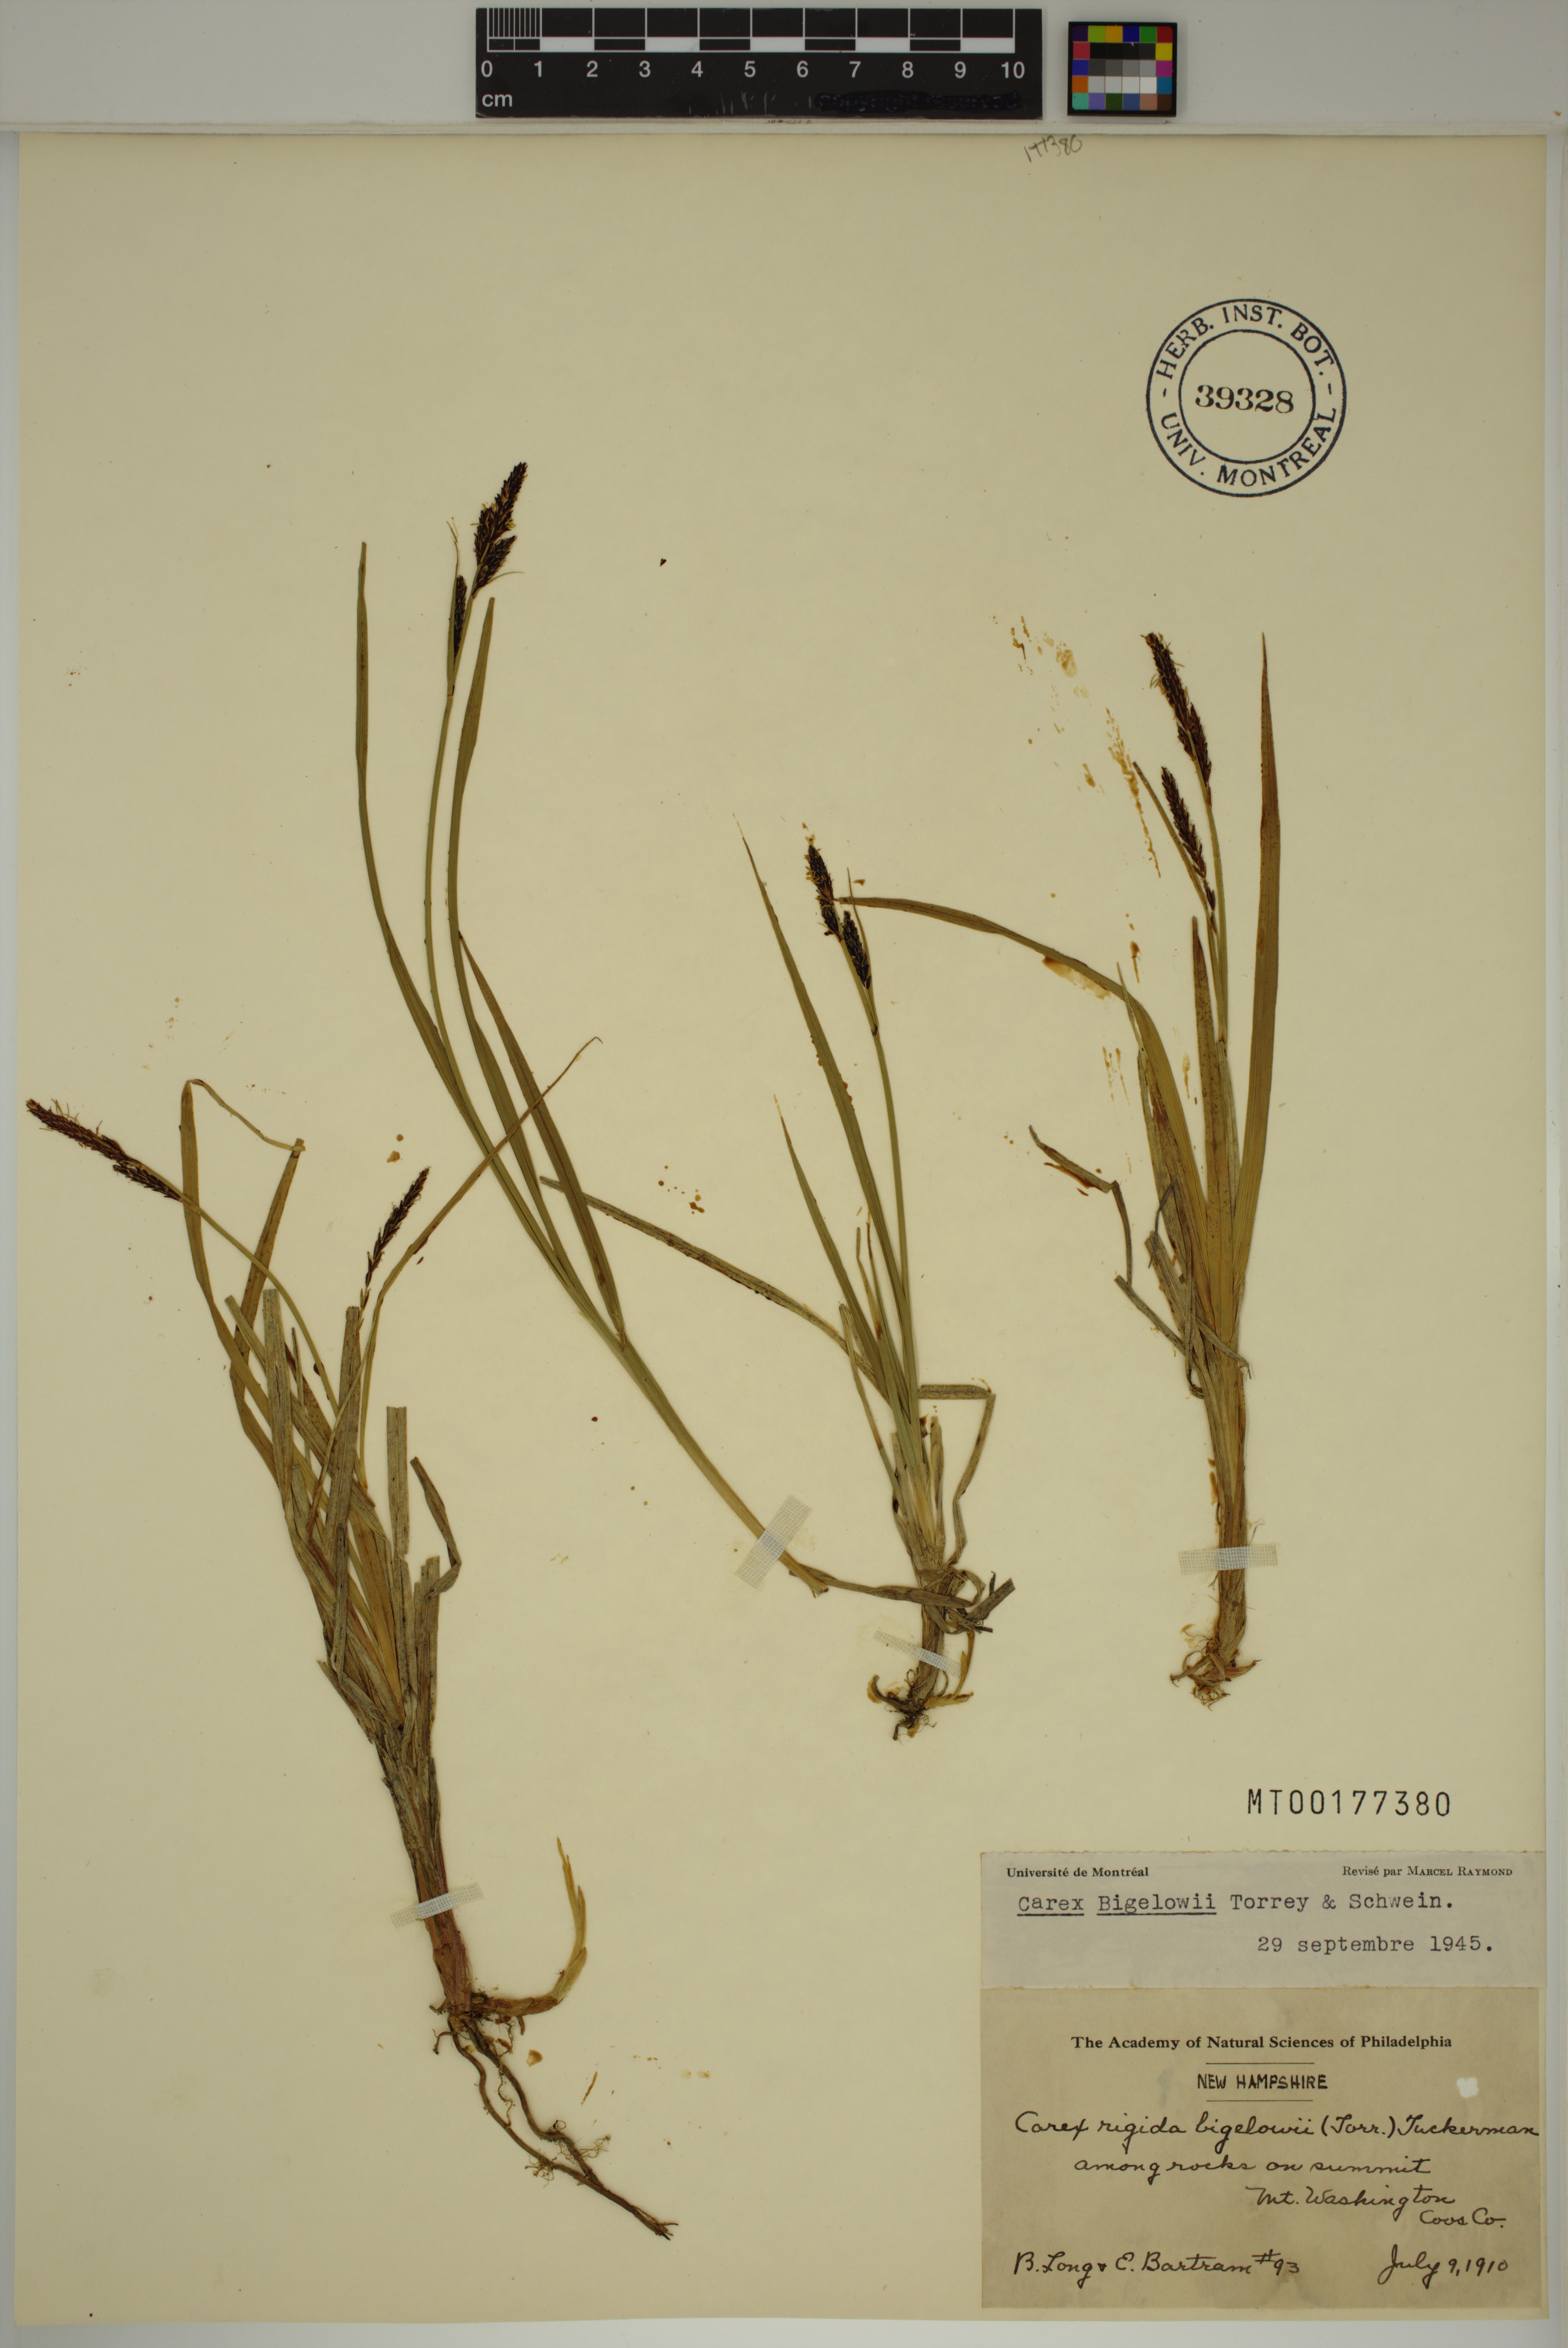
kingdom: Plantae
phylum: Tracheophyta
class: Liliopsida
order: Poales
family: Cyperaceae
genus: Carex
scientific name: Carex bigelowii
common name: Stiff sedge
